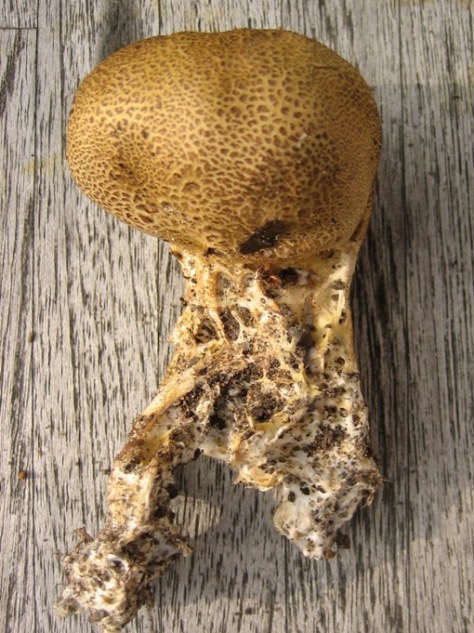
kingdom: Fungi
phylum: Basidiomycota
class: Agaricomycetes
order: Boletales
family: Sclerodermataceae
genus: Scleroderma
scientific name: Scleroderma verrucosum
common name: stilket bruskbold
